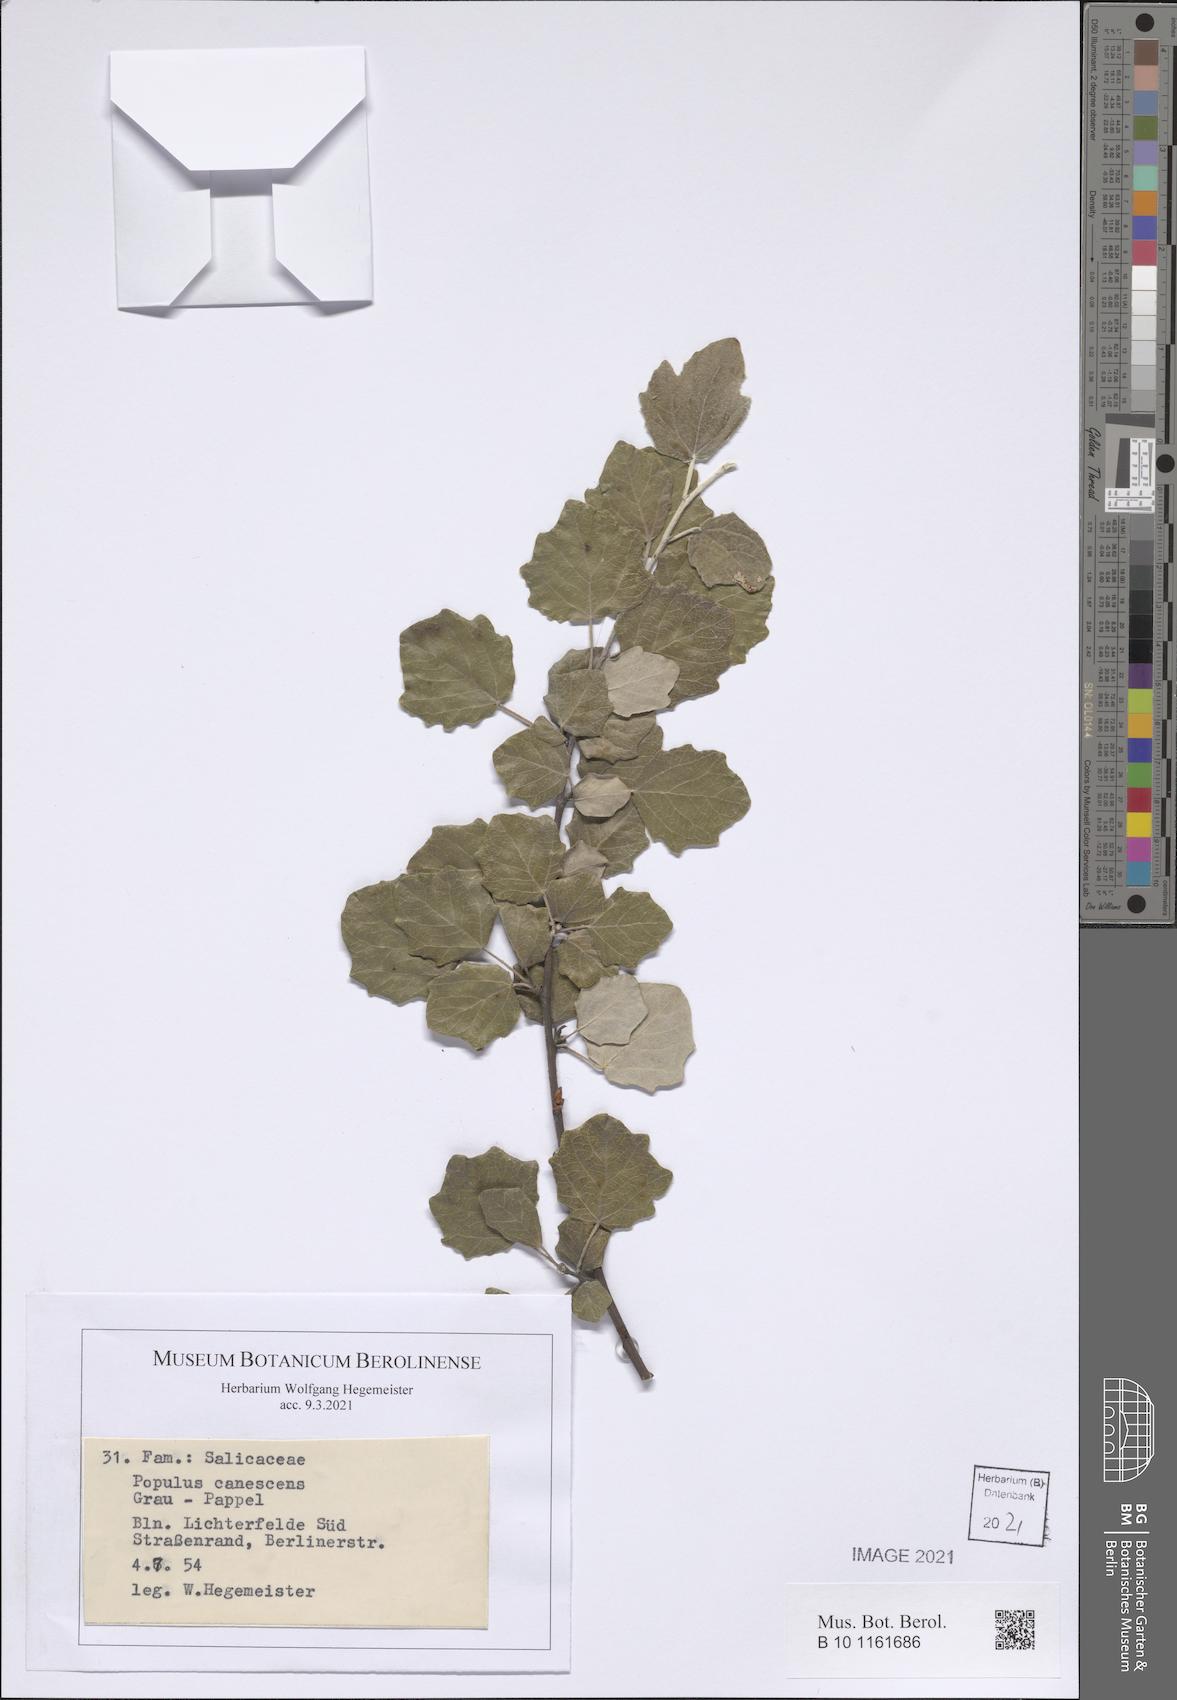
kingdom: Plantae
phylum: Tracheophyta
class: Magnoliopsida
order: Malpighiales
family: Salicaceae
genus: Populus
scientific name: Populus canescens
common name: Gray poplar
